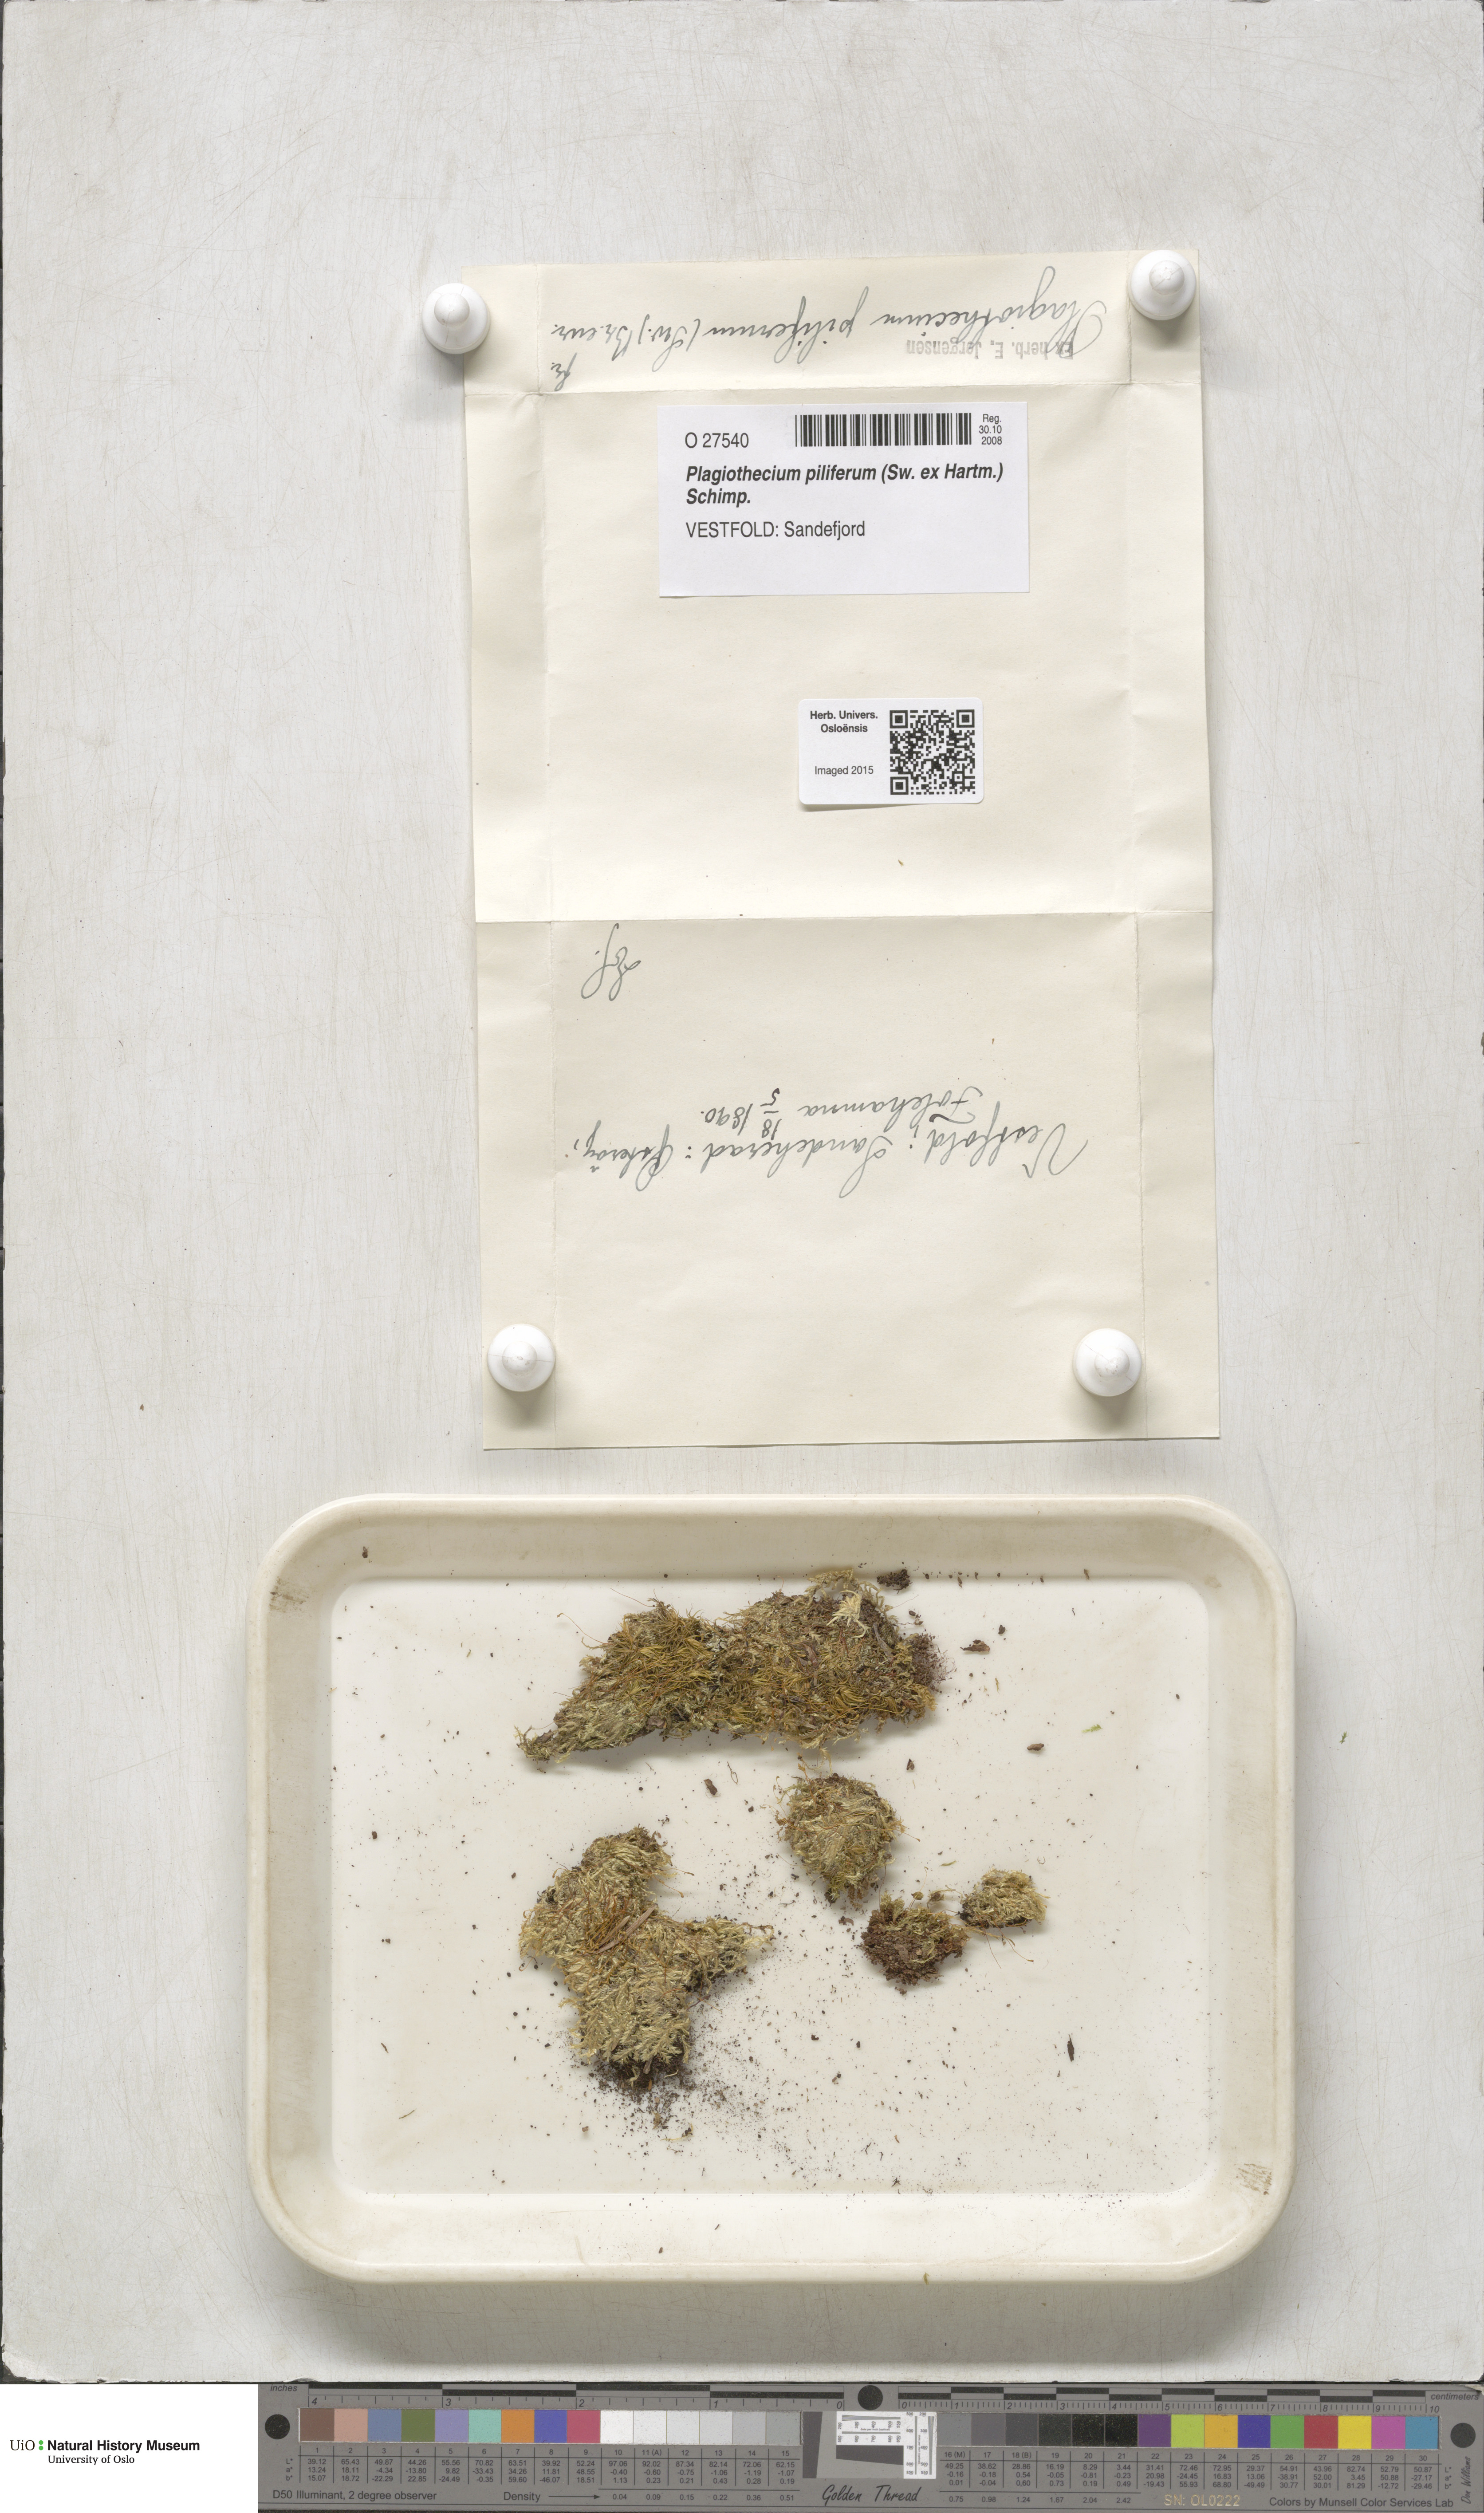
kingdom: Plantae
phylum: Bryophyta
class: Bryopsida
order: Hypnales
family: Plagiotheciaceae
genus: Rectithecium
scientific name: Rectithecium piliferum
